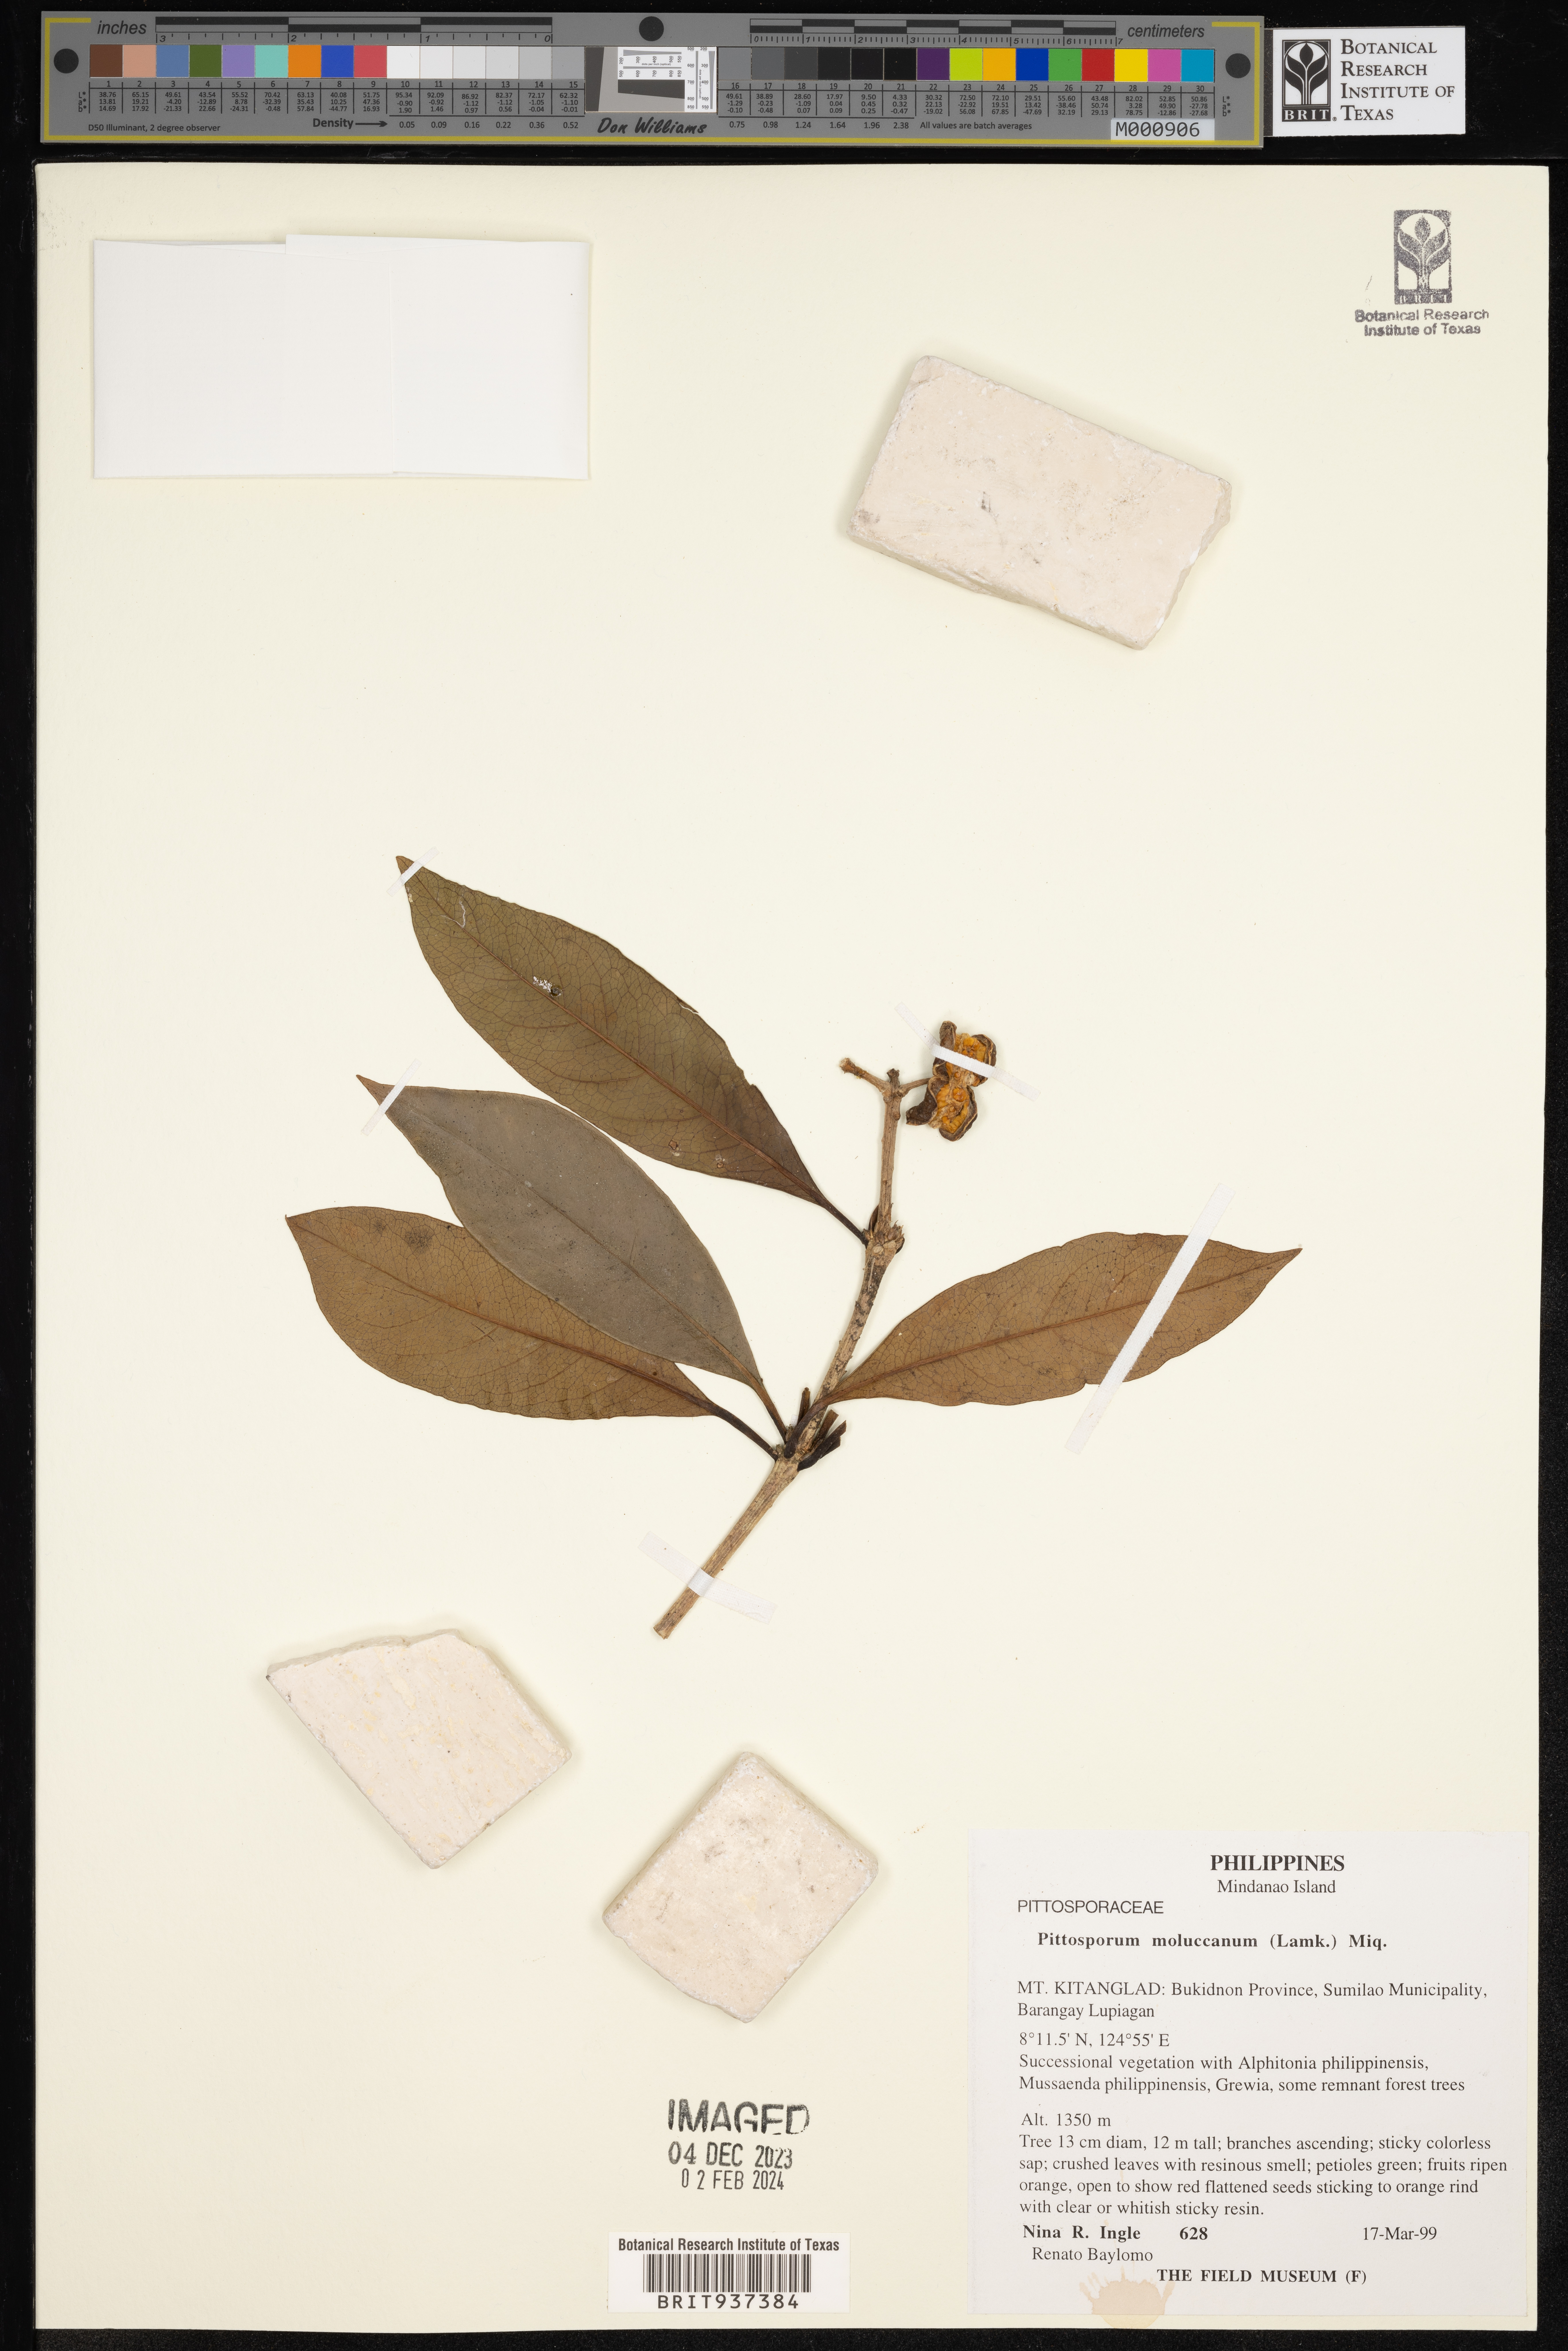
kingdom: Plantae
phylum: Tracheophyta
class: Magnoliopsida
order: Apiales
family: Pittosporaceae
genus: Pittosporum
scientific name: Pittosporum moluccanum
